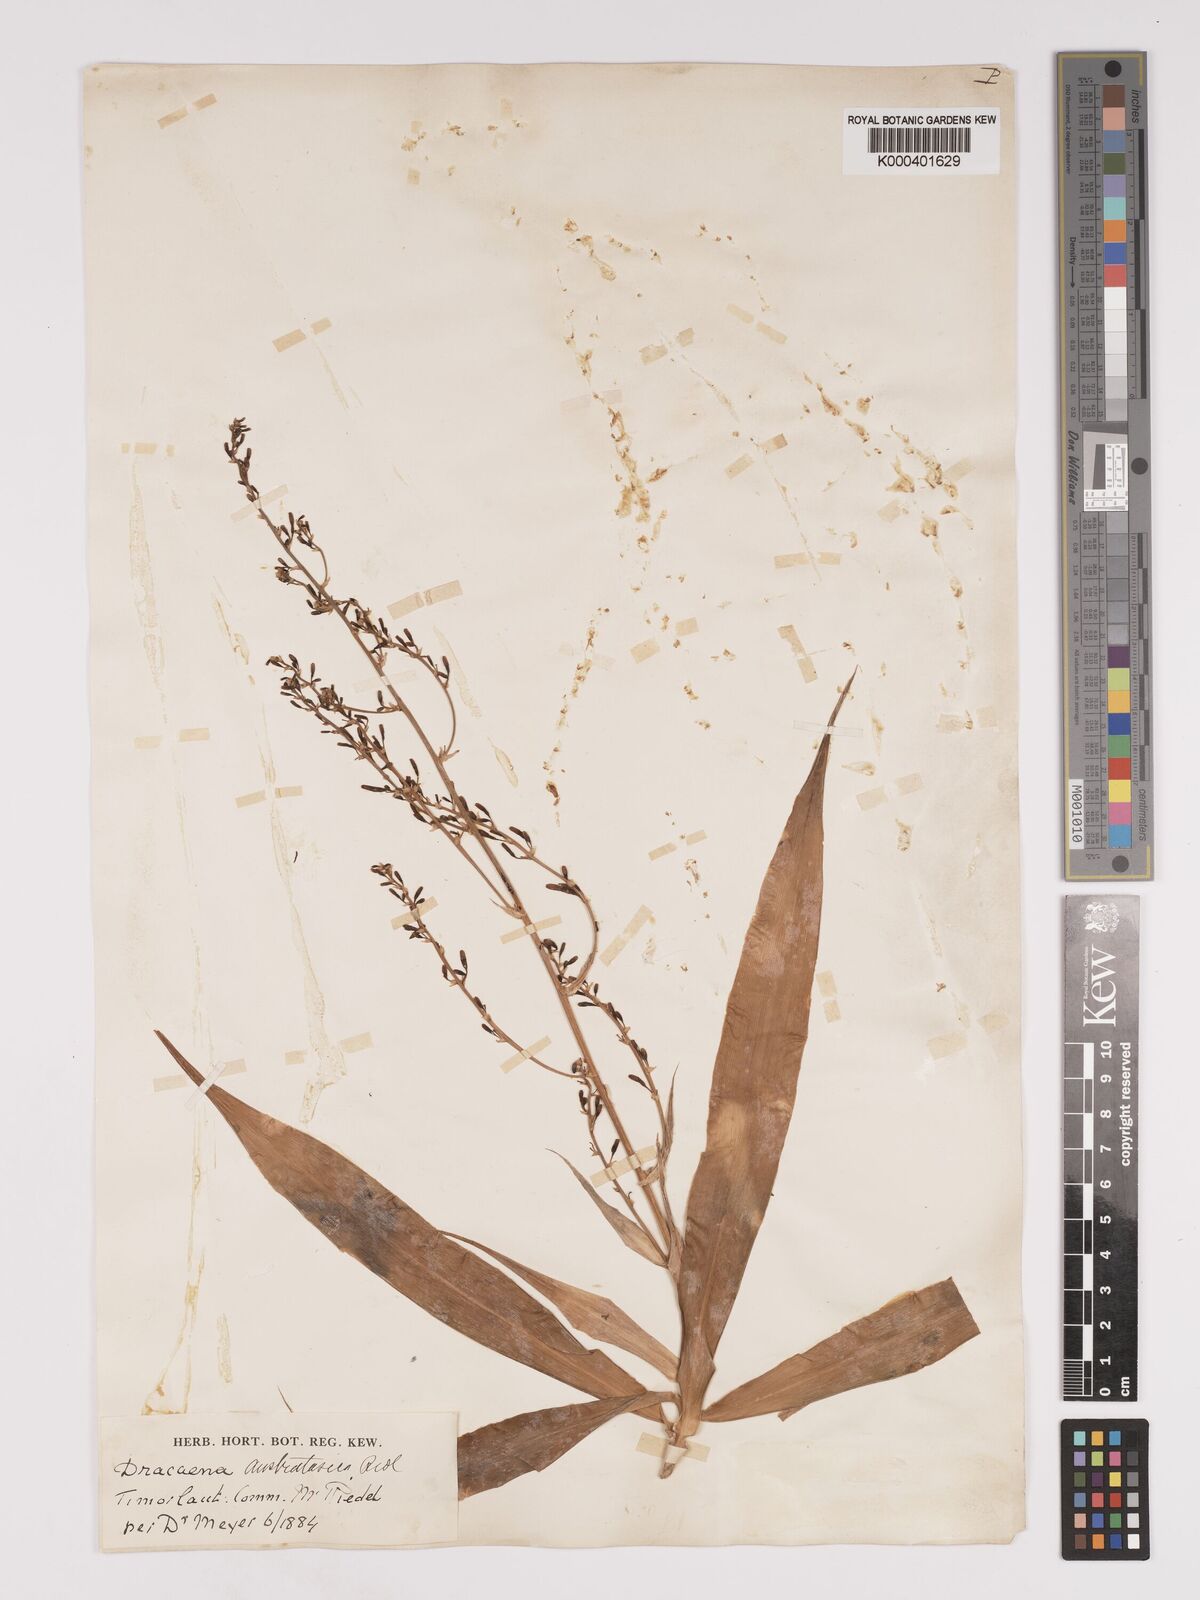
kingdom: Plantae
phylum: Tracheophyta
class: Liliopsida
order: Asparagales
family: Asparagaceae
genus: Dracaena
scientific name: Dracaena angustifolia
